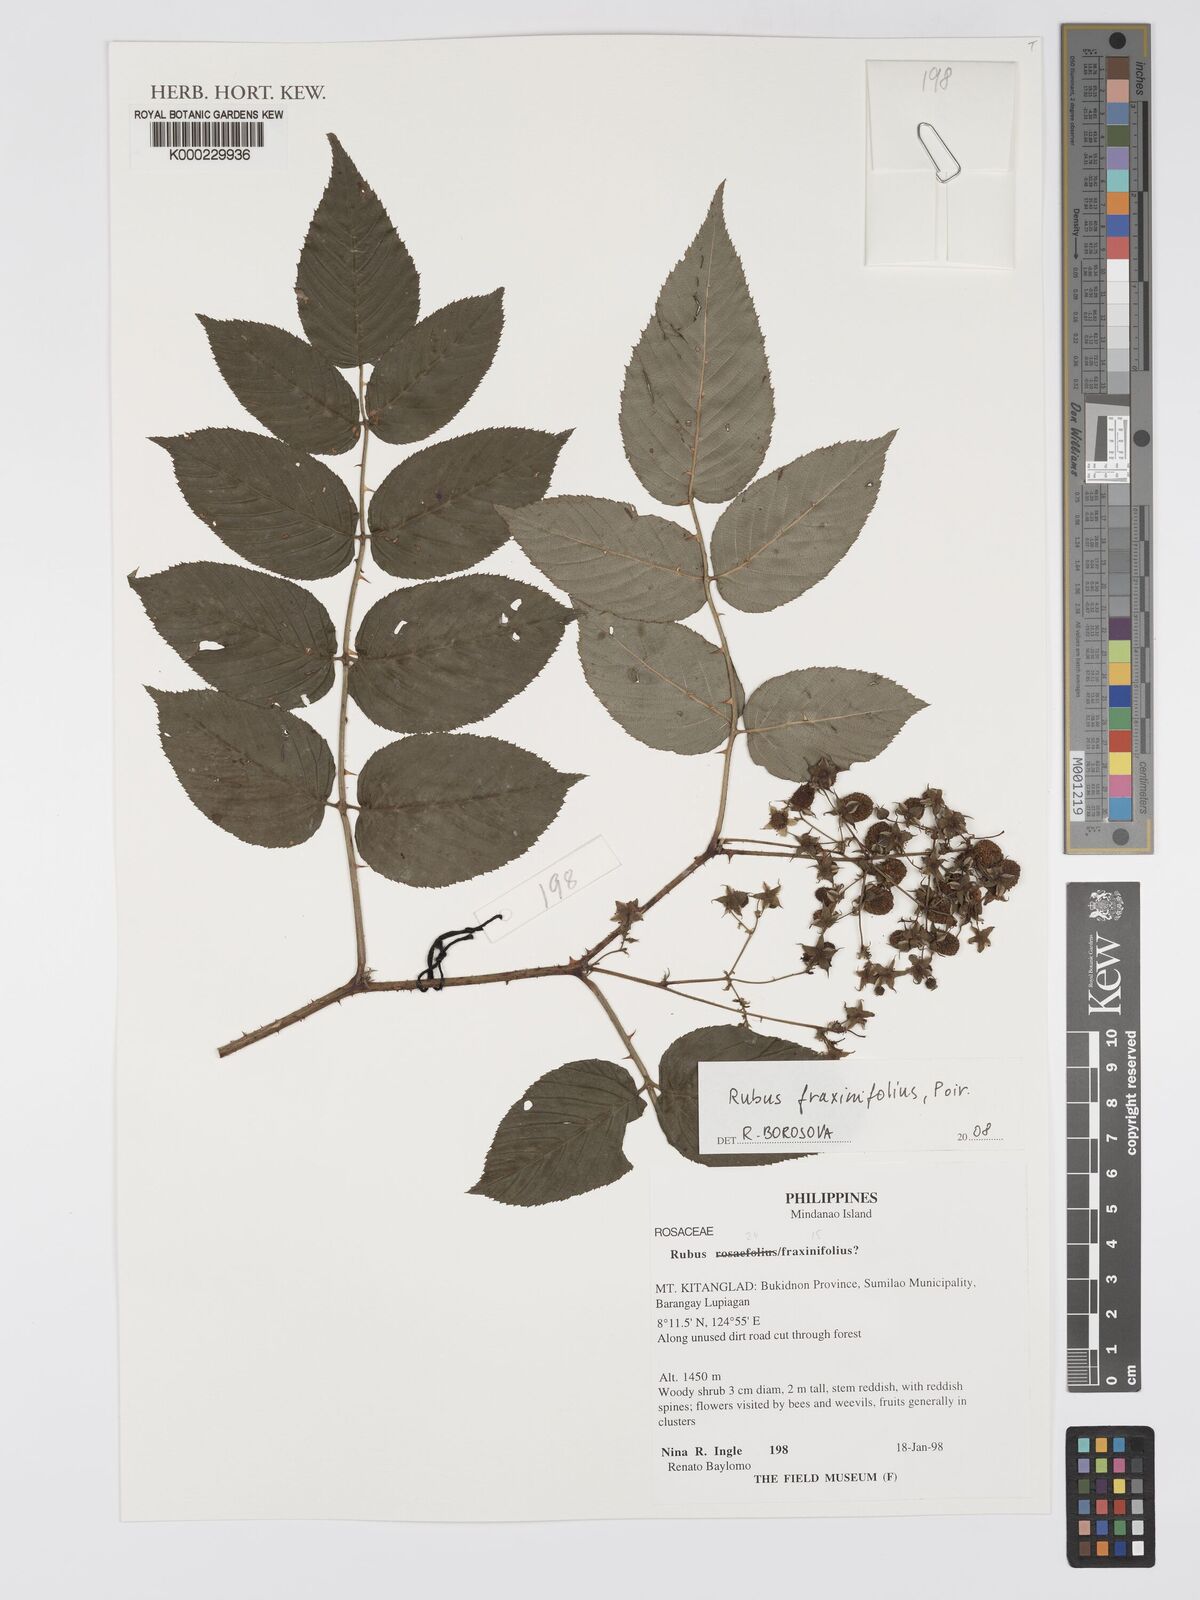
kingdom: Plantae
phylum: Tracheophyta
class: Magnoliopsida
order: Rosales
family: Rosaceae
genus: Rubus
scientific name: Rubus fraxinifolius
